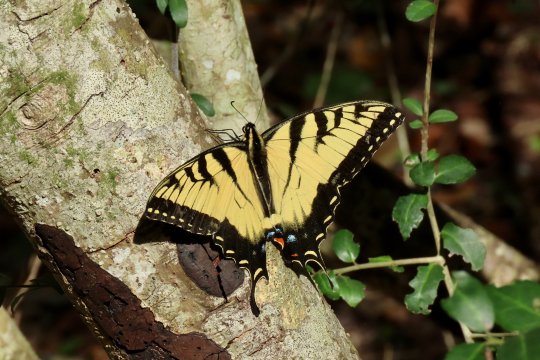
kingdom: Animalia
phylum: Arthropoda
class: Insecta
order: Lepidoptera
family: Papilionidae
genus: Pterourus
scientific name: Pterourus glaucus
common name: Eastern Tiger Swallowtail
